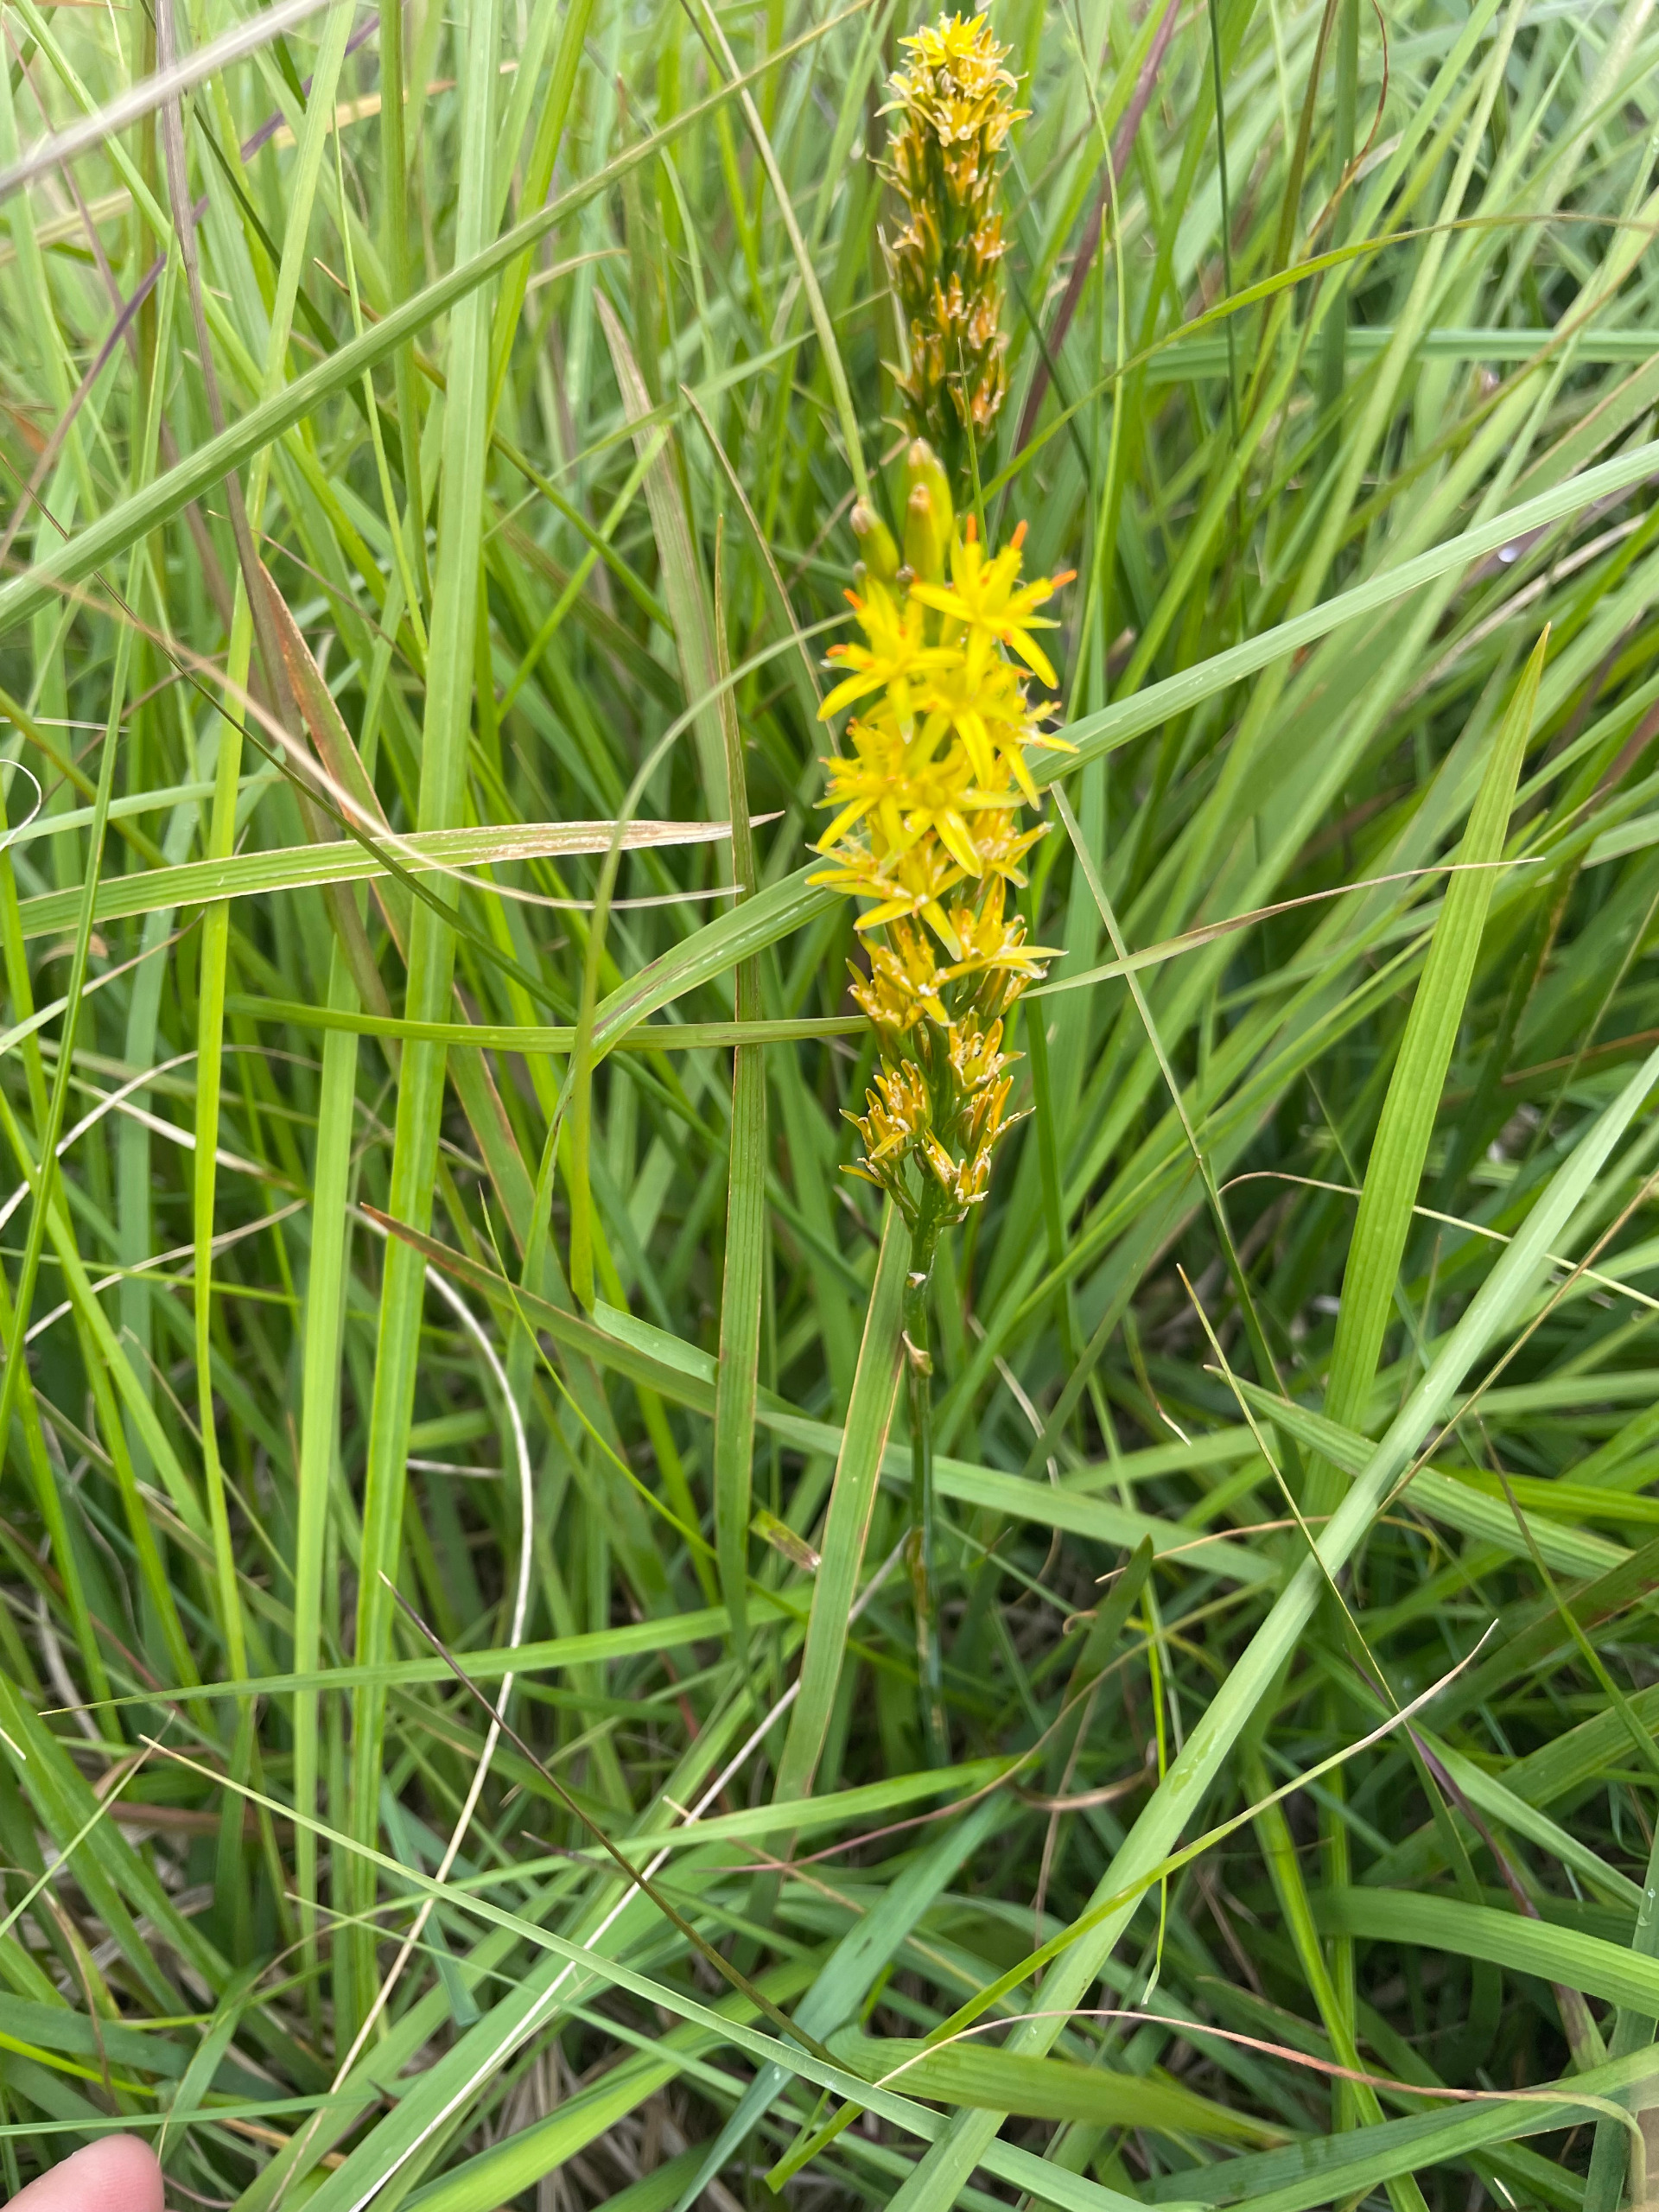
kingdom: Plantae
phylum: Tracheophyta
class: Liliopsida
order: Dioscoreales
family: Nartheciaceae
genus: Narthecium
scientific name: Narthecium ossifragum
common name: Benbræk
